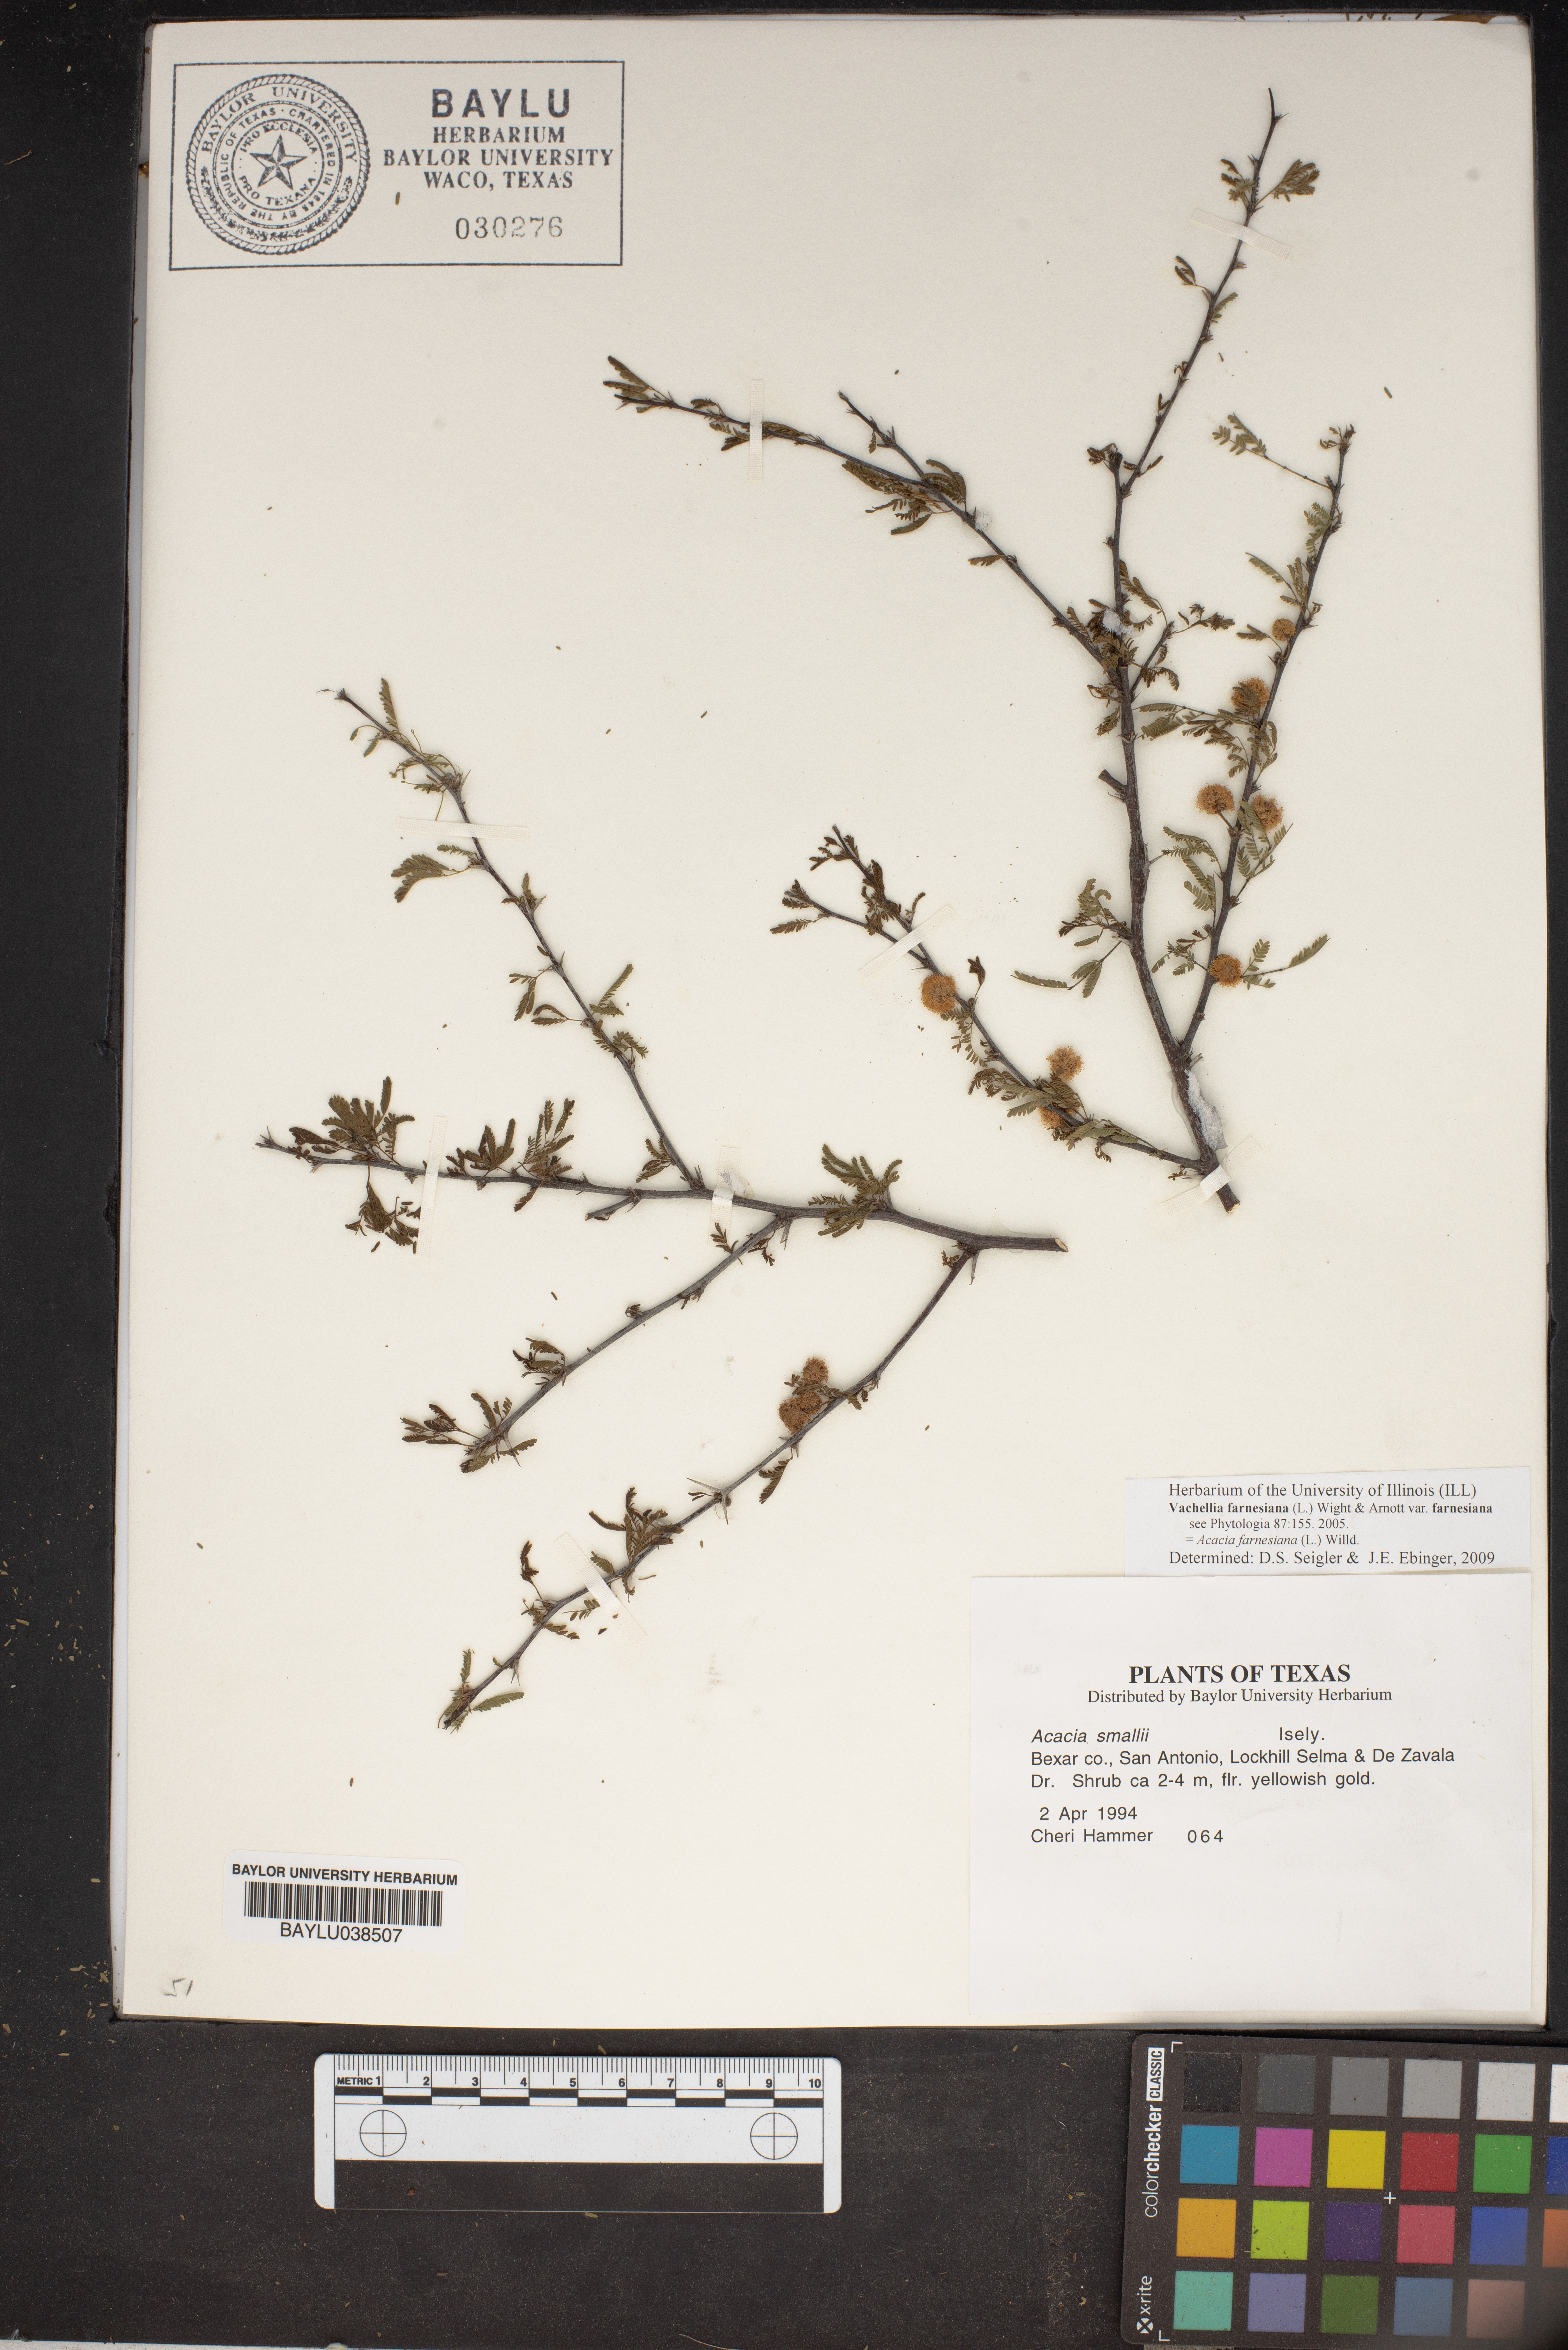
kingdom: Plantae
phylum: Tracheophyta
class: Magnoliopsida
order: Fabales
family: Fabaceae
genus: Vachellia
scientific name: Vachellia farnesiana
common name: Sweet acacia
